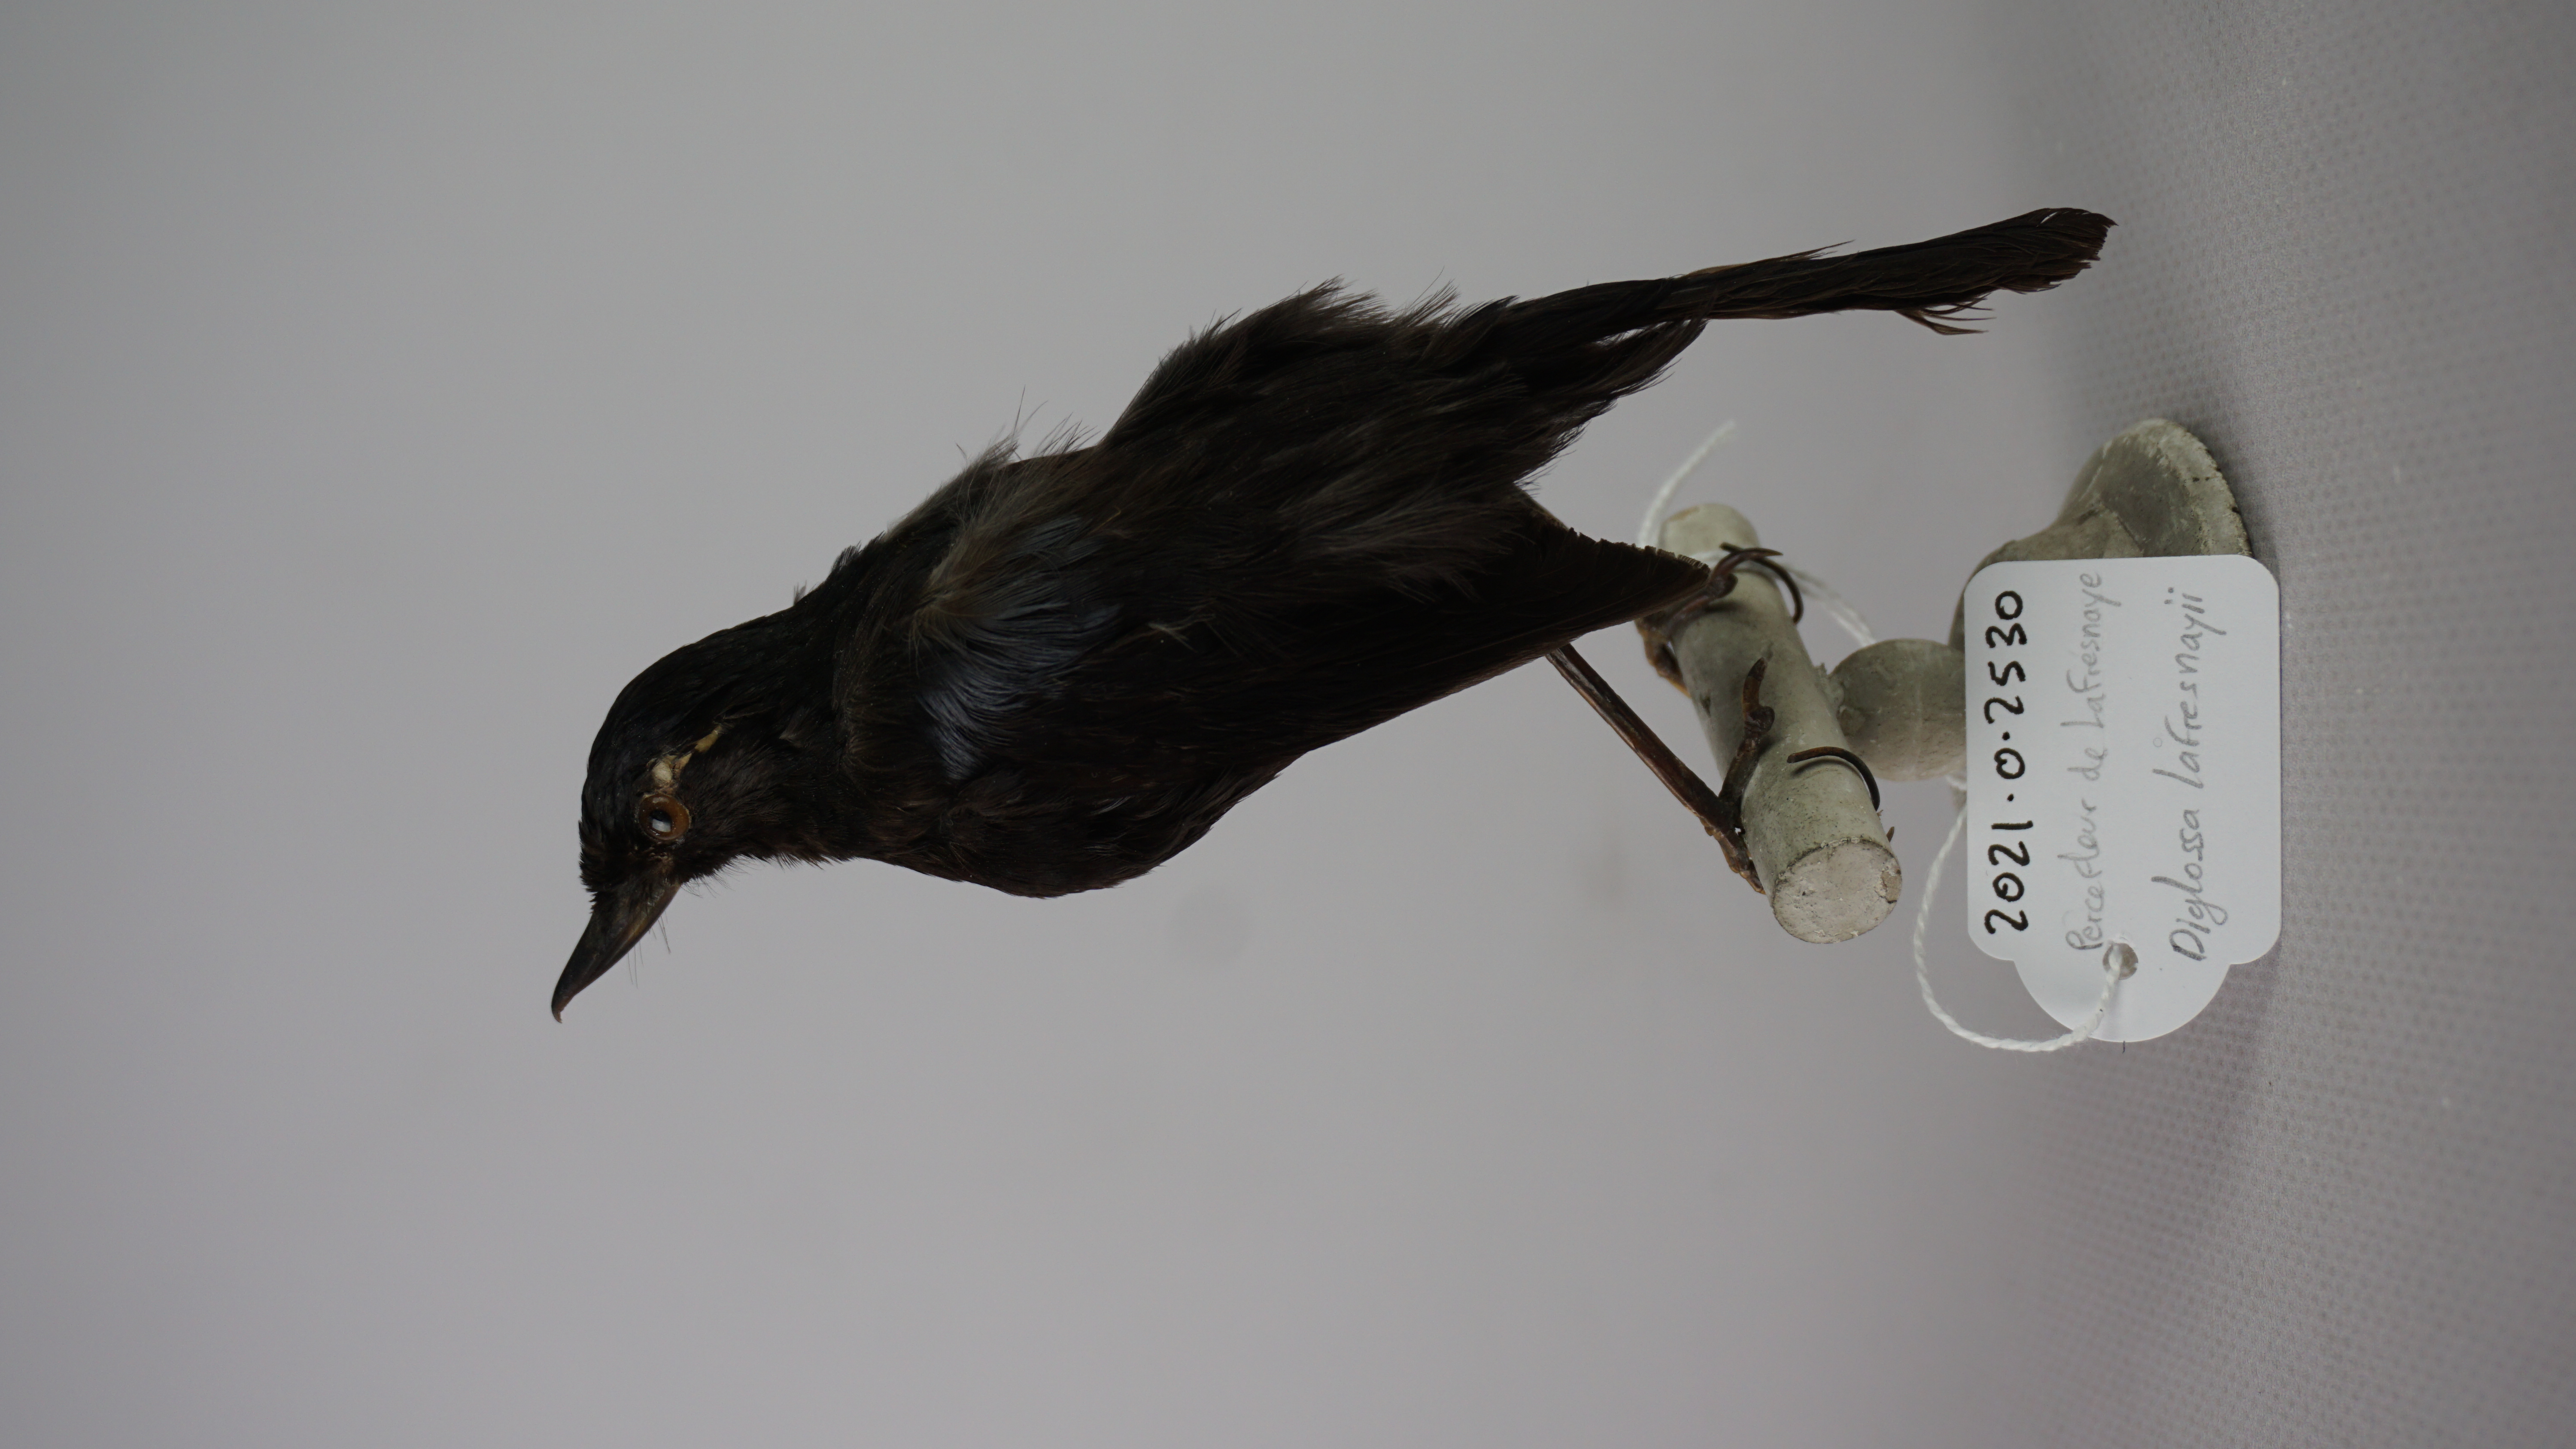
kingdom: Animalia
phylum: Chordata
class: Aves
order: Passeriformes
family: Thraupidae
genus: Diglossa
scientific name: Diglossa lafresnayii
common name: Glossy flowerpiercer
